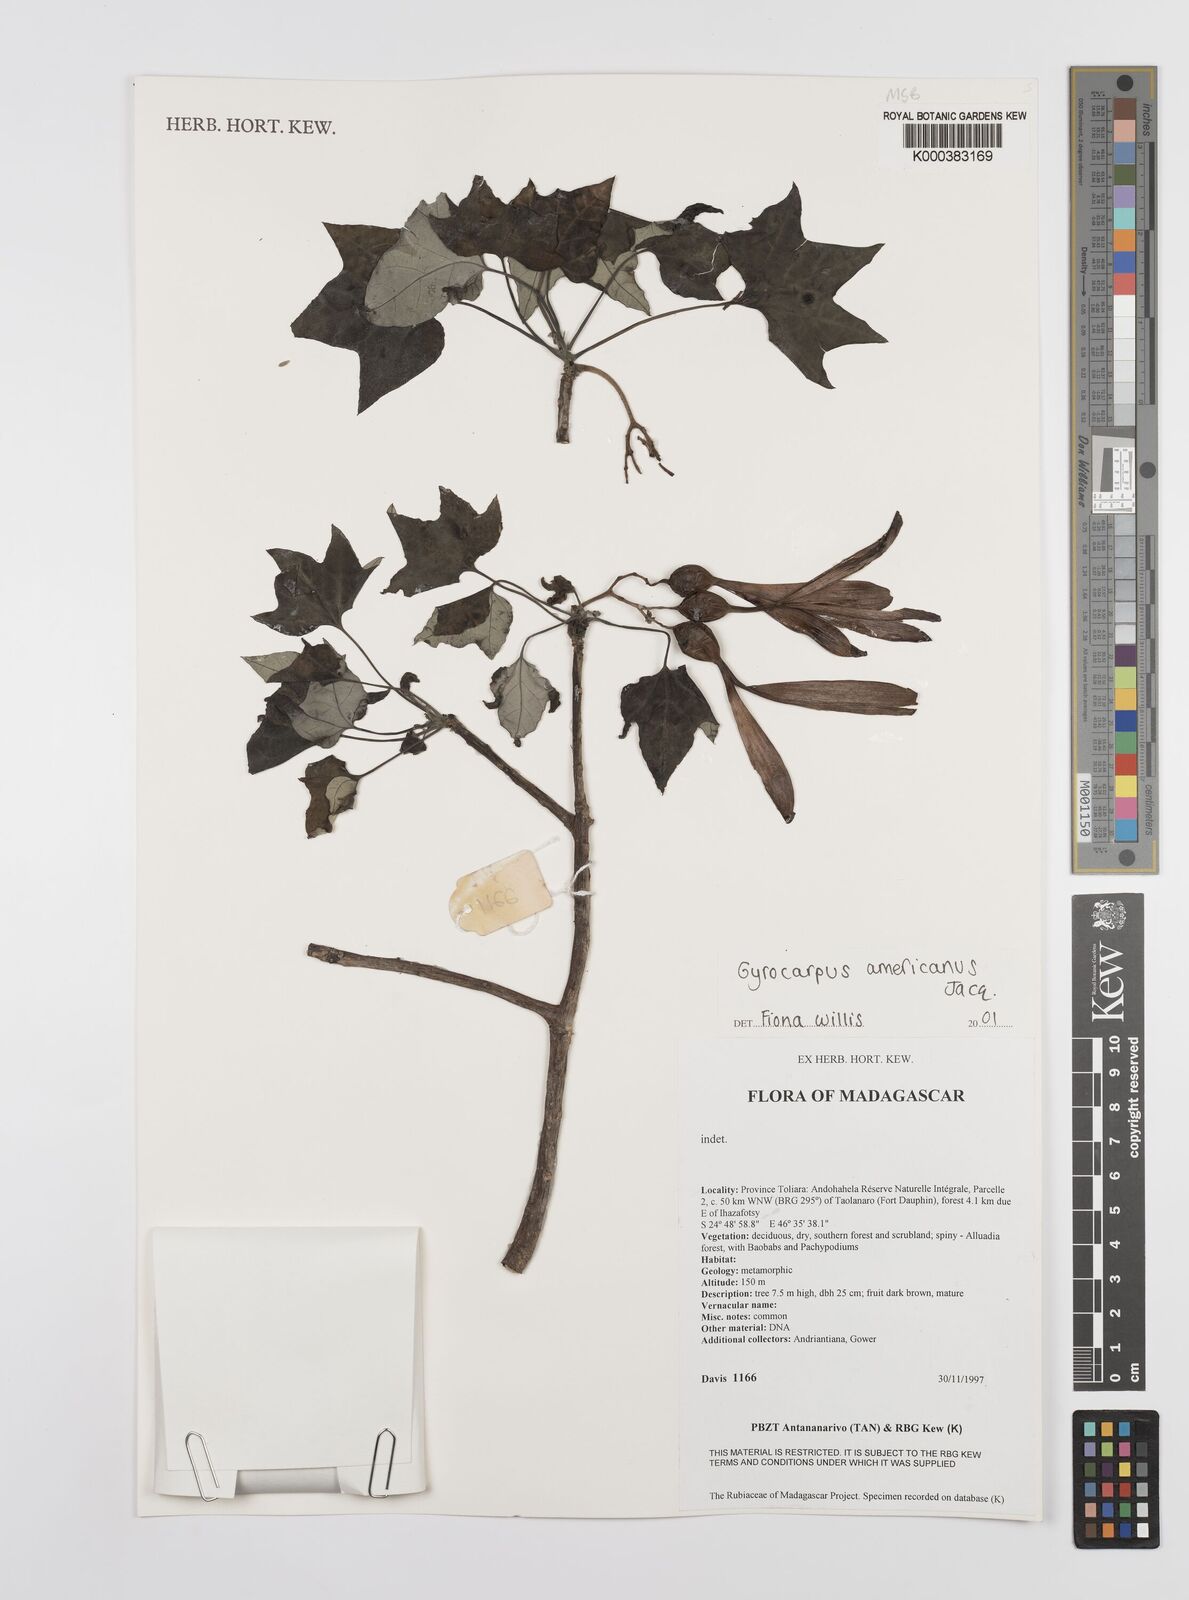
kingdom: Plantae
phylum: Tracheophyta
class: Magnoliopsida
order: Laurales
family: Hernandiaceae
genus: Gyrocarpus
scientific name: Gyrocarpus americanus
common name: Gyro damson
